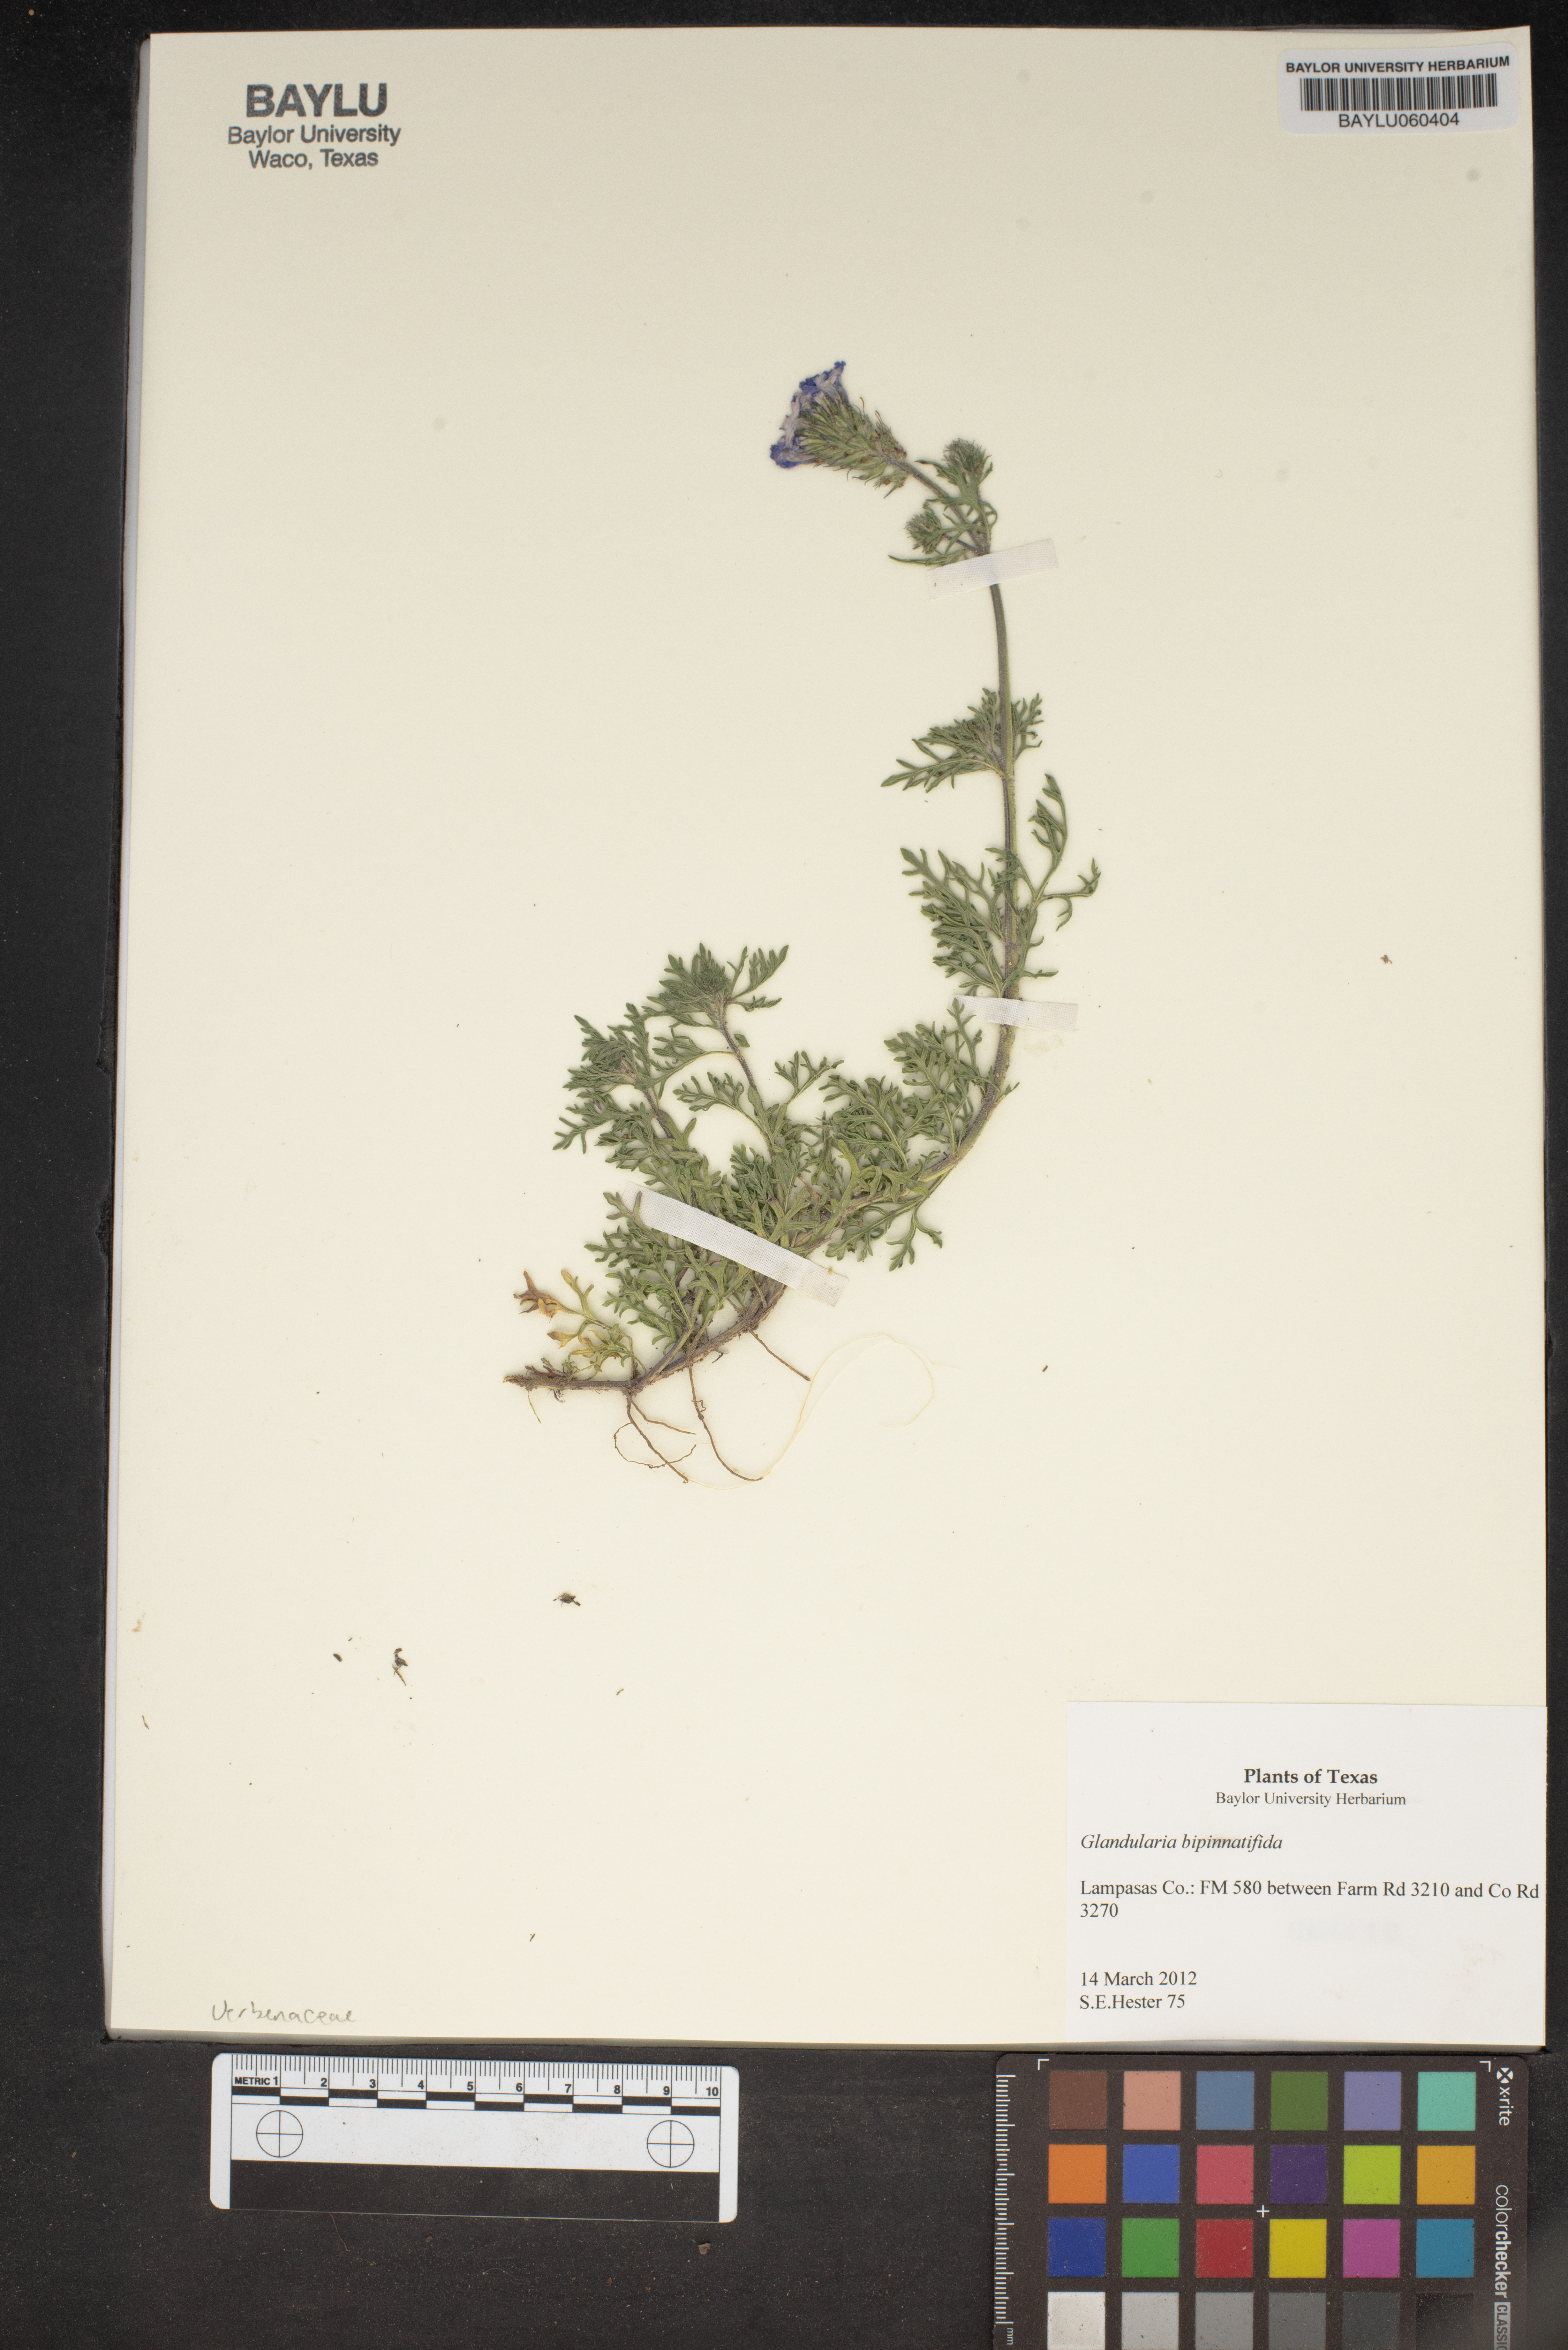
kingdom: Plantae
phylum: Tracheophyta
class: Magnoliopsida
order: Lamiales
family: Verbenaceae
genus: Verbena
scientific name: Verbena bipinnatifida
